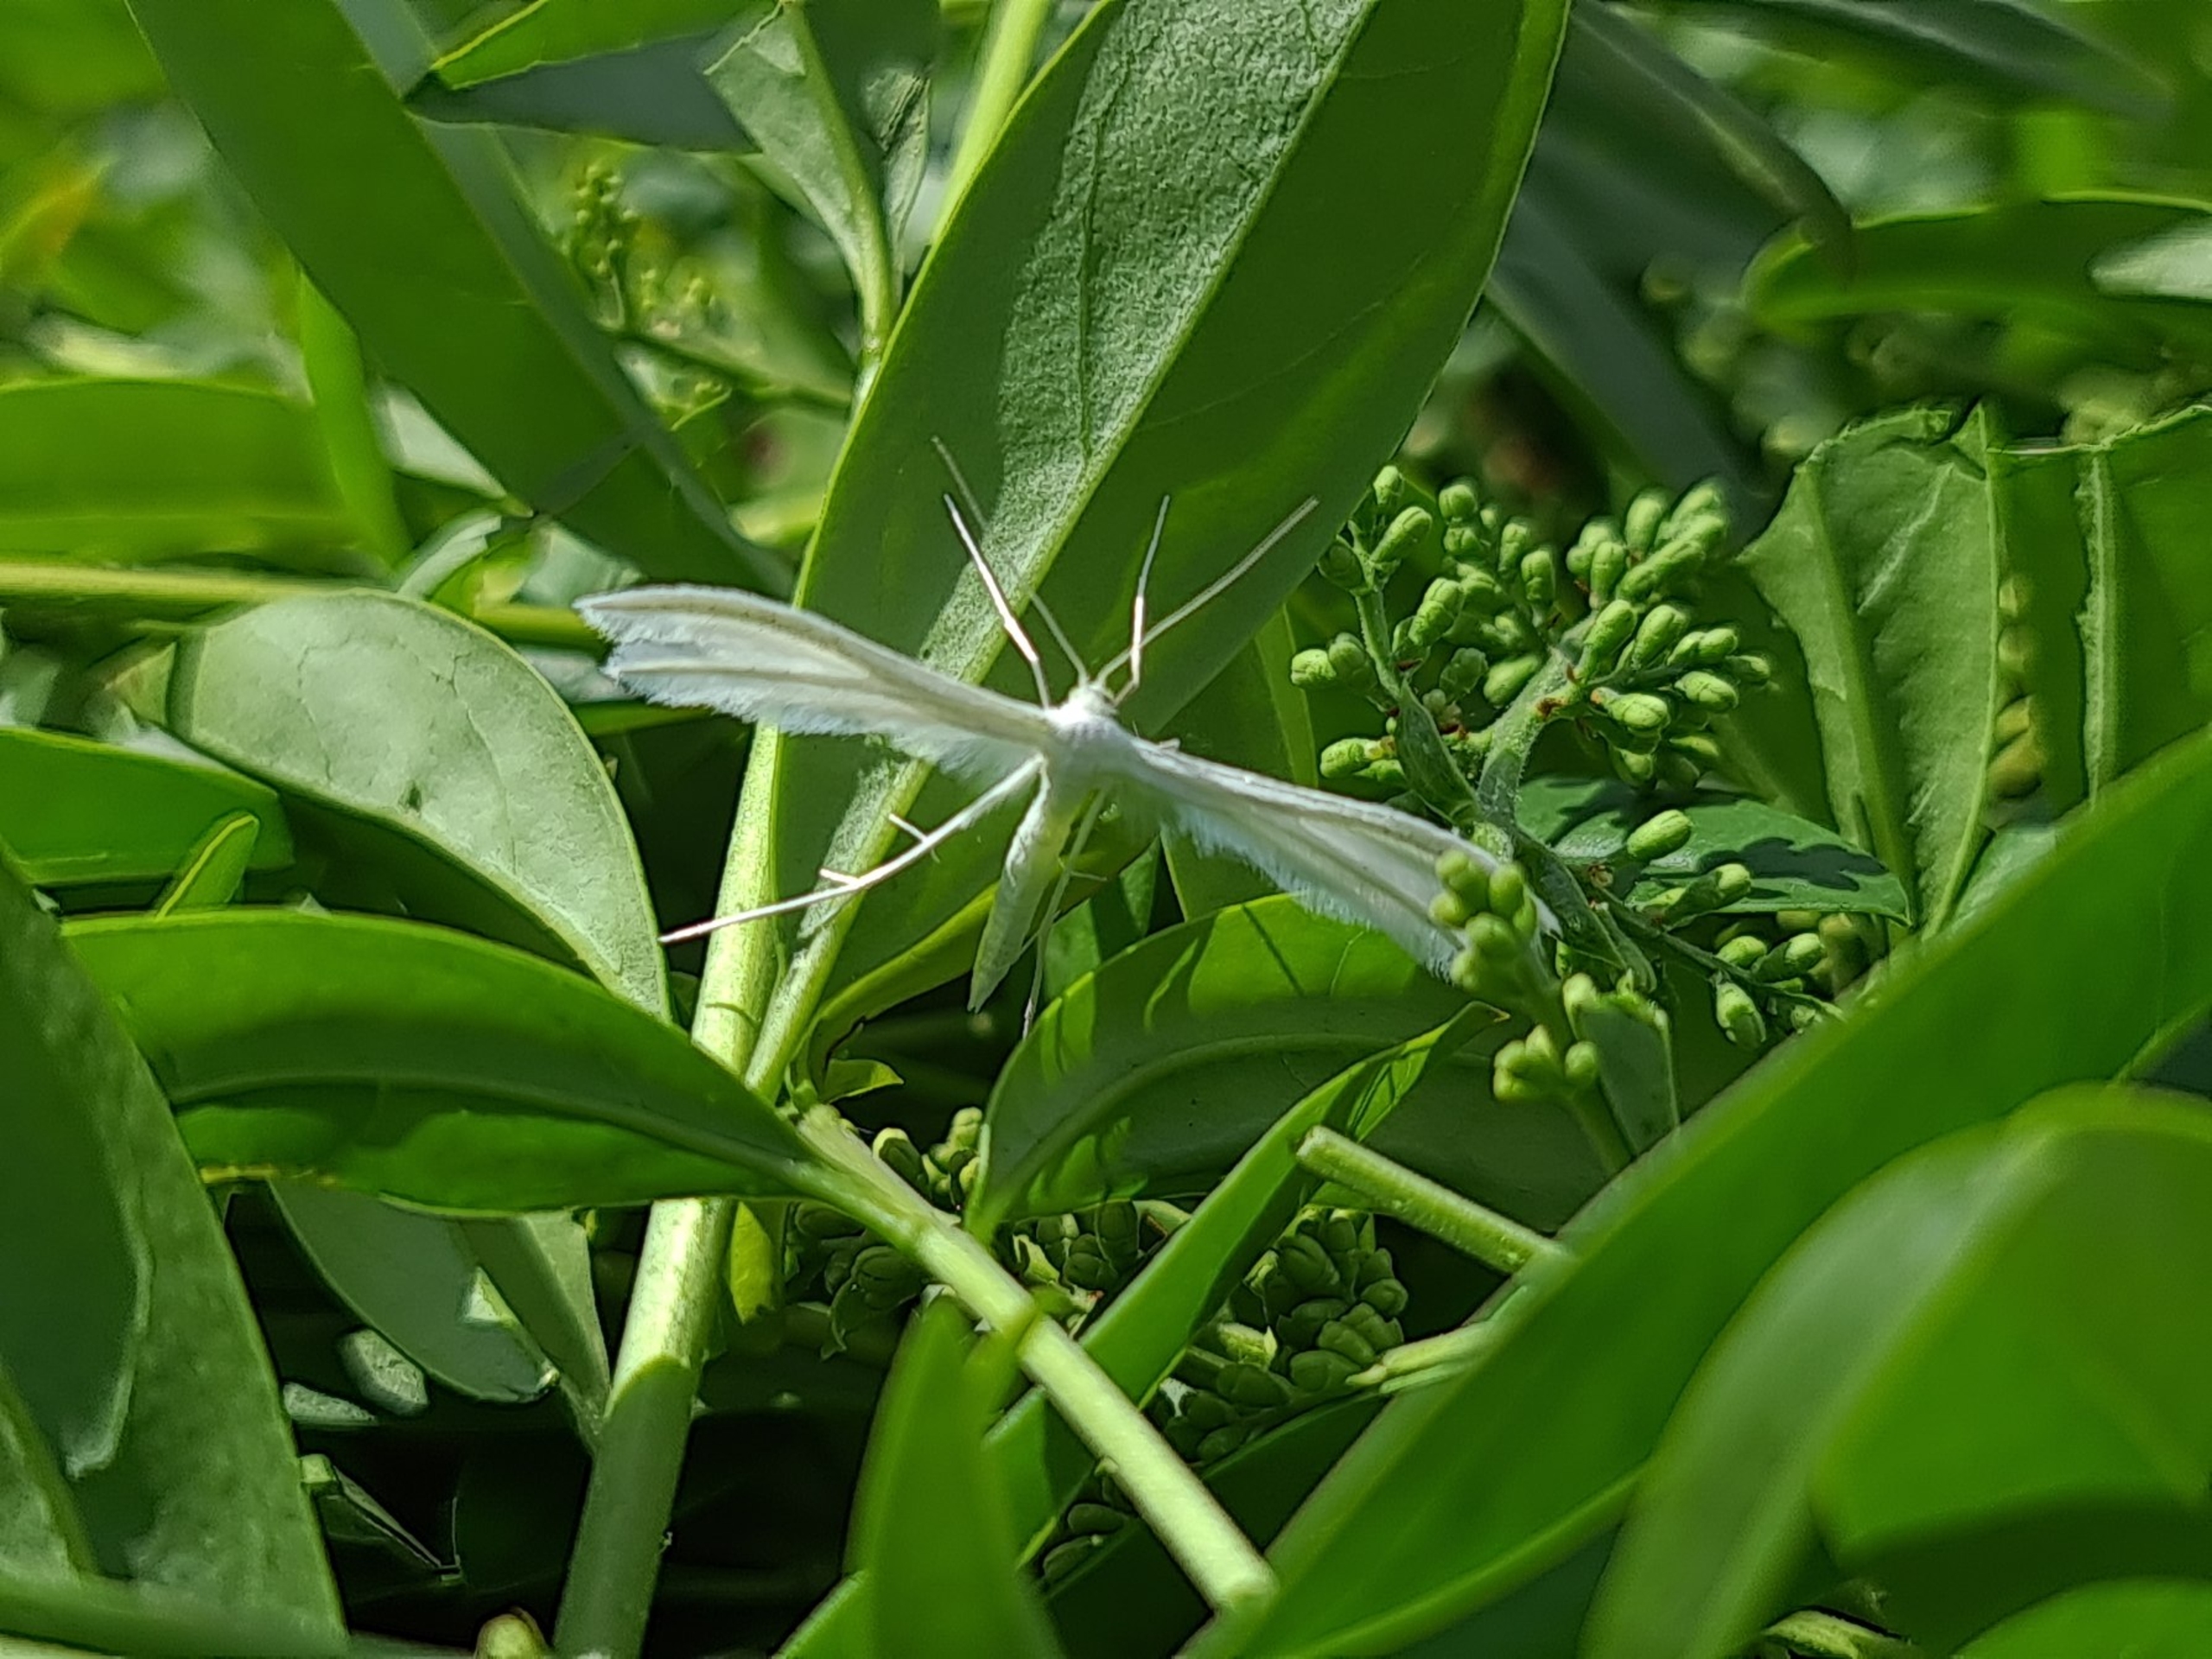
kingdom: Animalia
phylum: Arthropoda
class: Insecta
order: Lepidoptera
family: Pterophoridae
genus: Pterophorus
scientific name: Pterophorus pentadactyla
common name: Hvidt fjermøl
